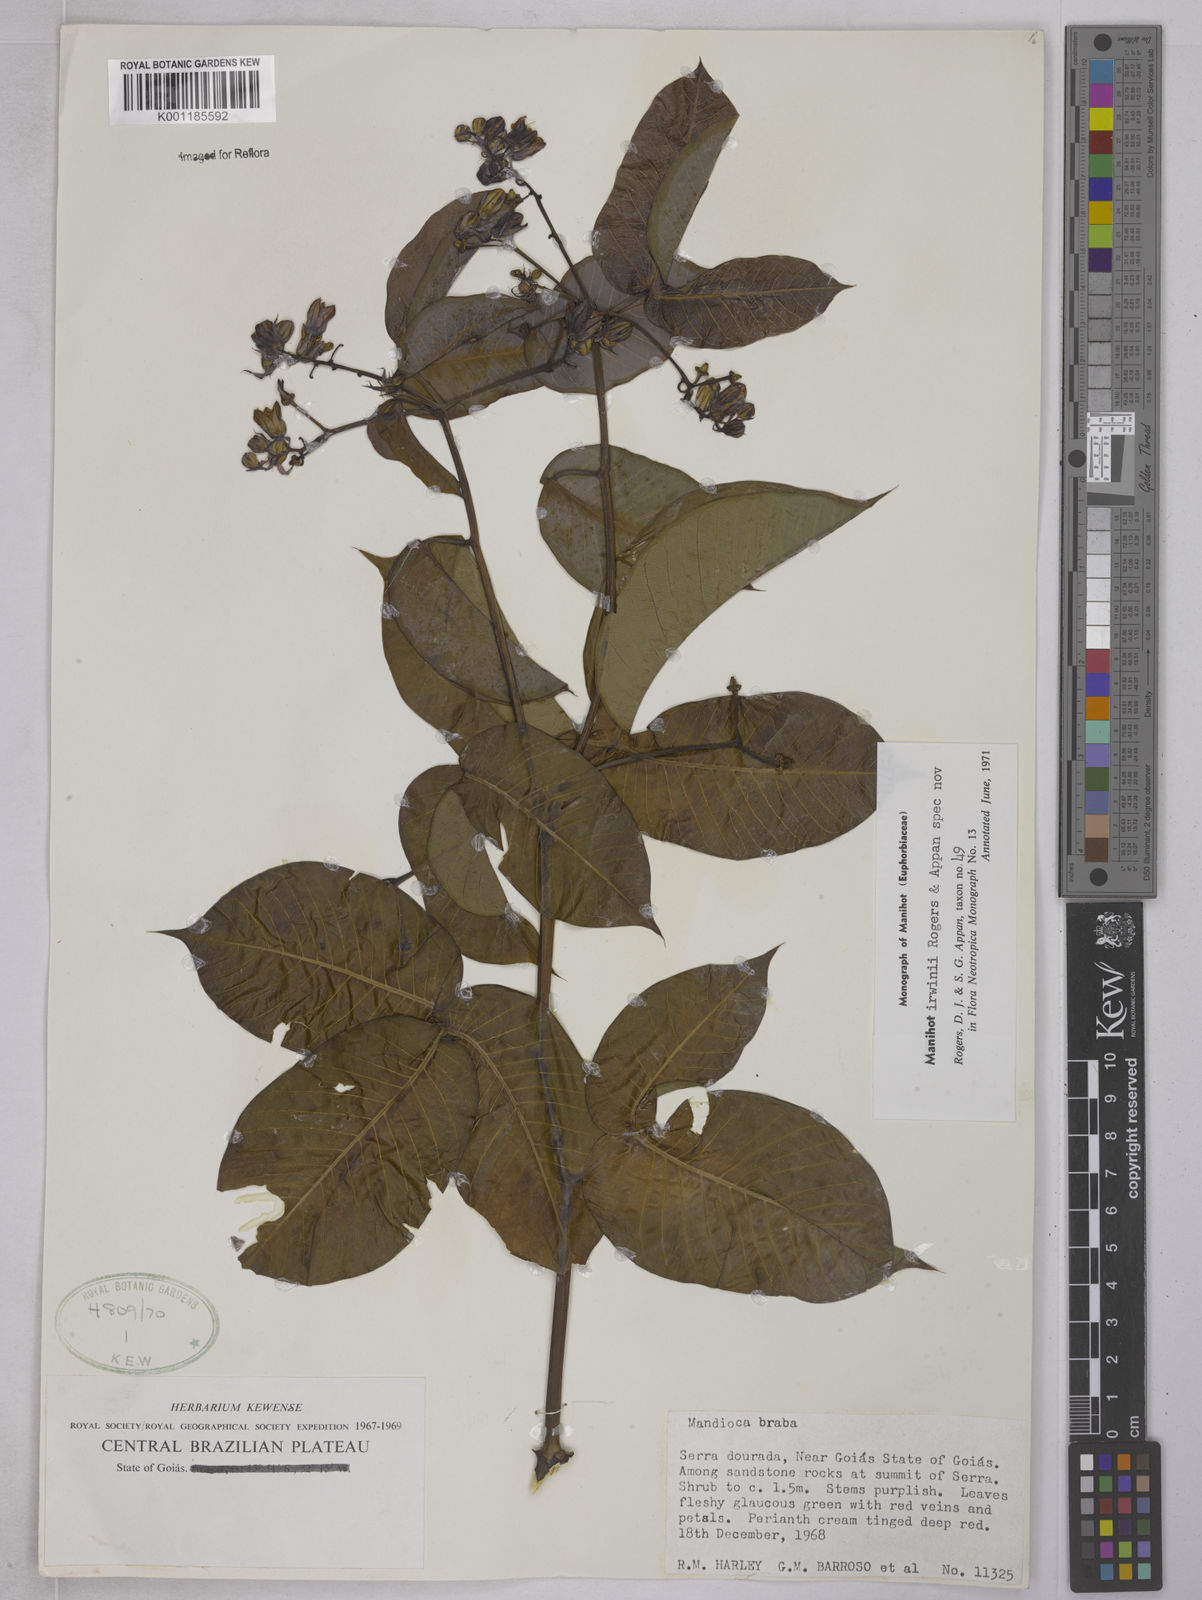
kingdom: Plantae
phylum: Tracheophyta
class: Magnoliopsida
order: Malpighiales
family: Euphorbiaceae
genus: Manihot
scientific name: Manihot irwinii
